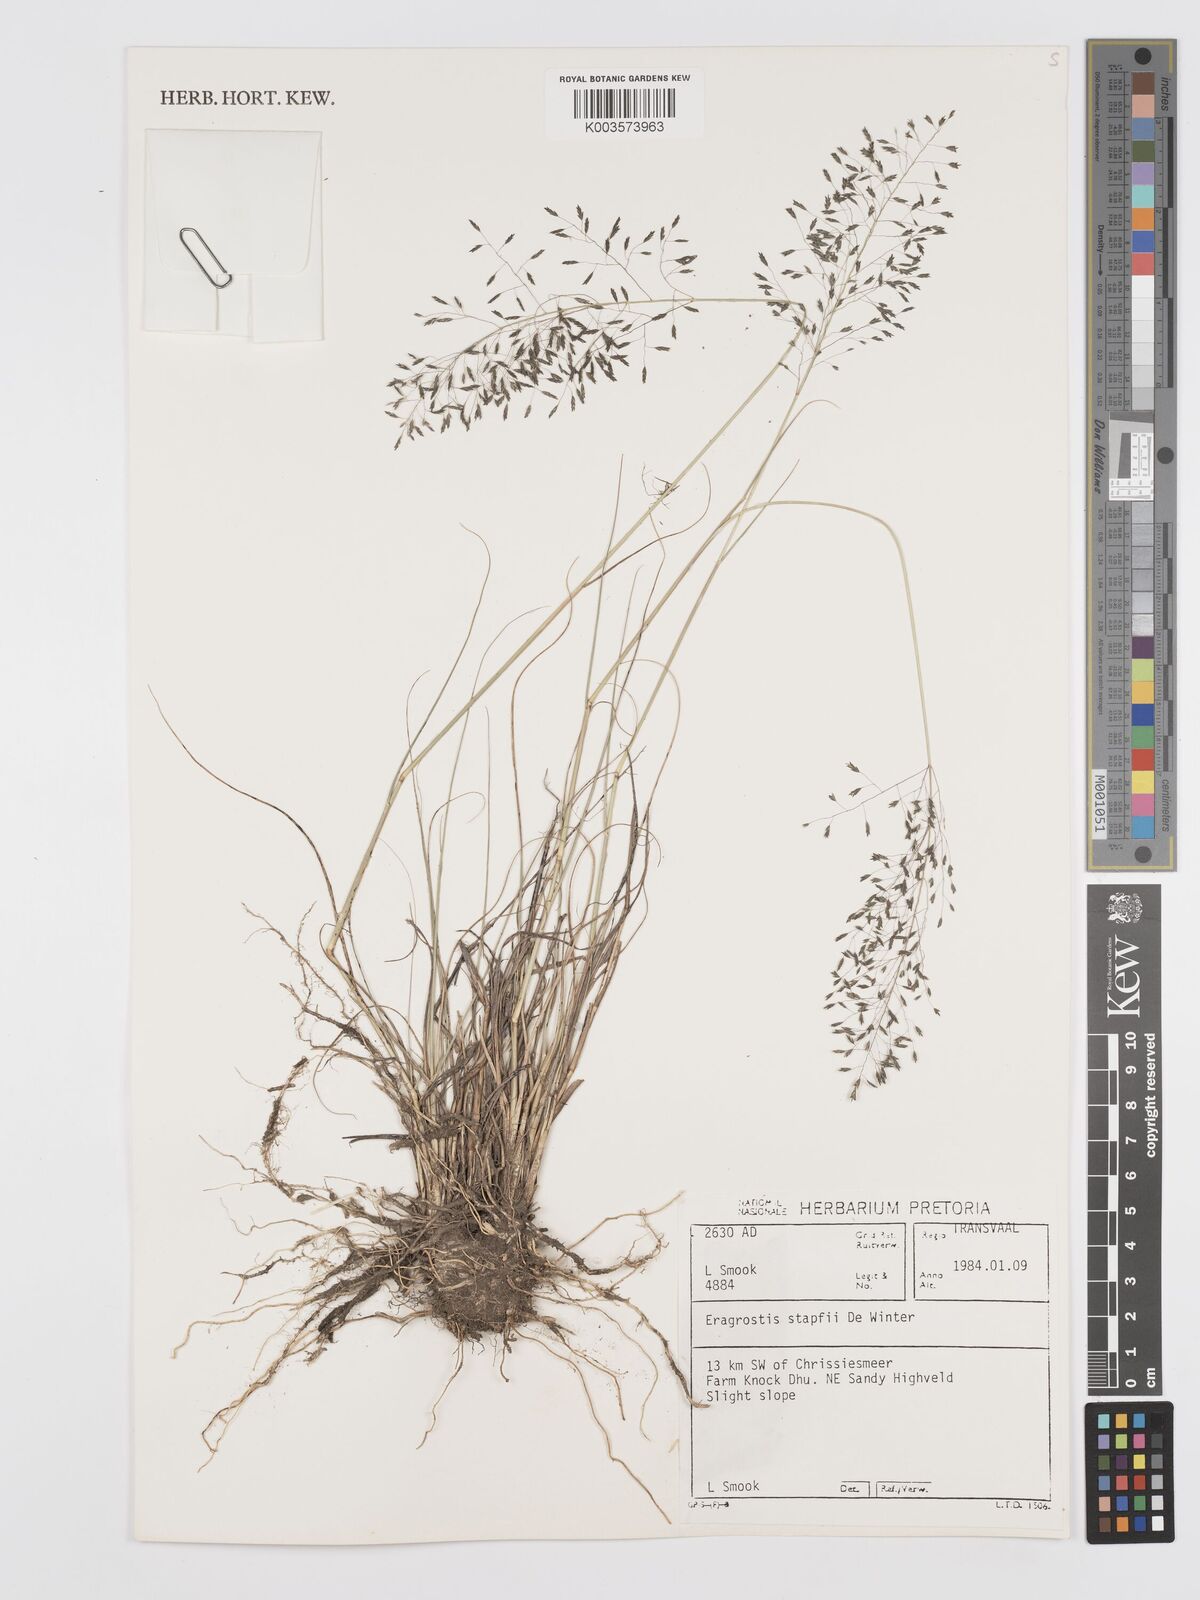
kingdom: Plantae
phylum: Tracheophyta
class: Liliopsida
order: Poales
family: Poaceae
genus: Eragrostis
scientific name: Eragrostis stapfii
